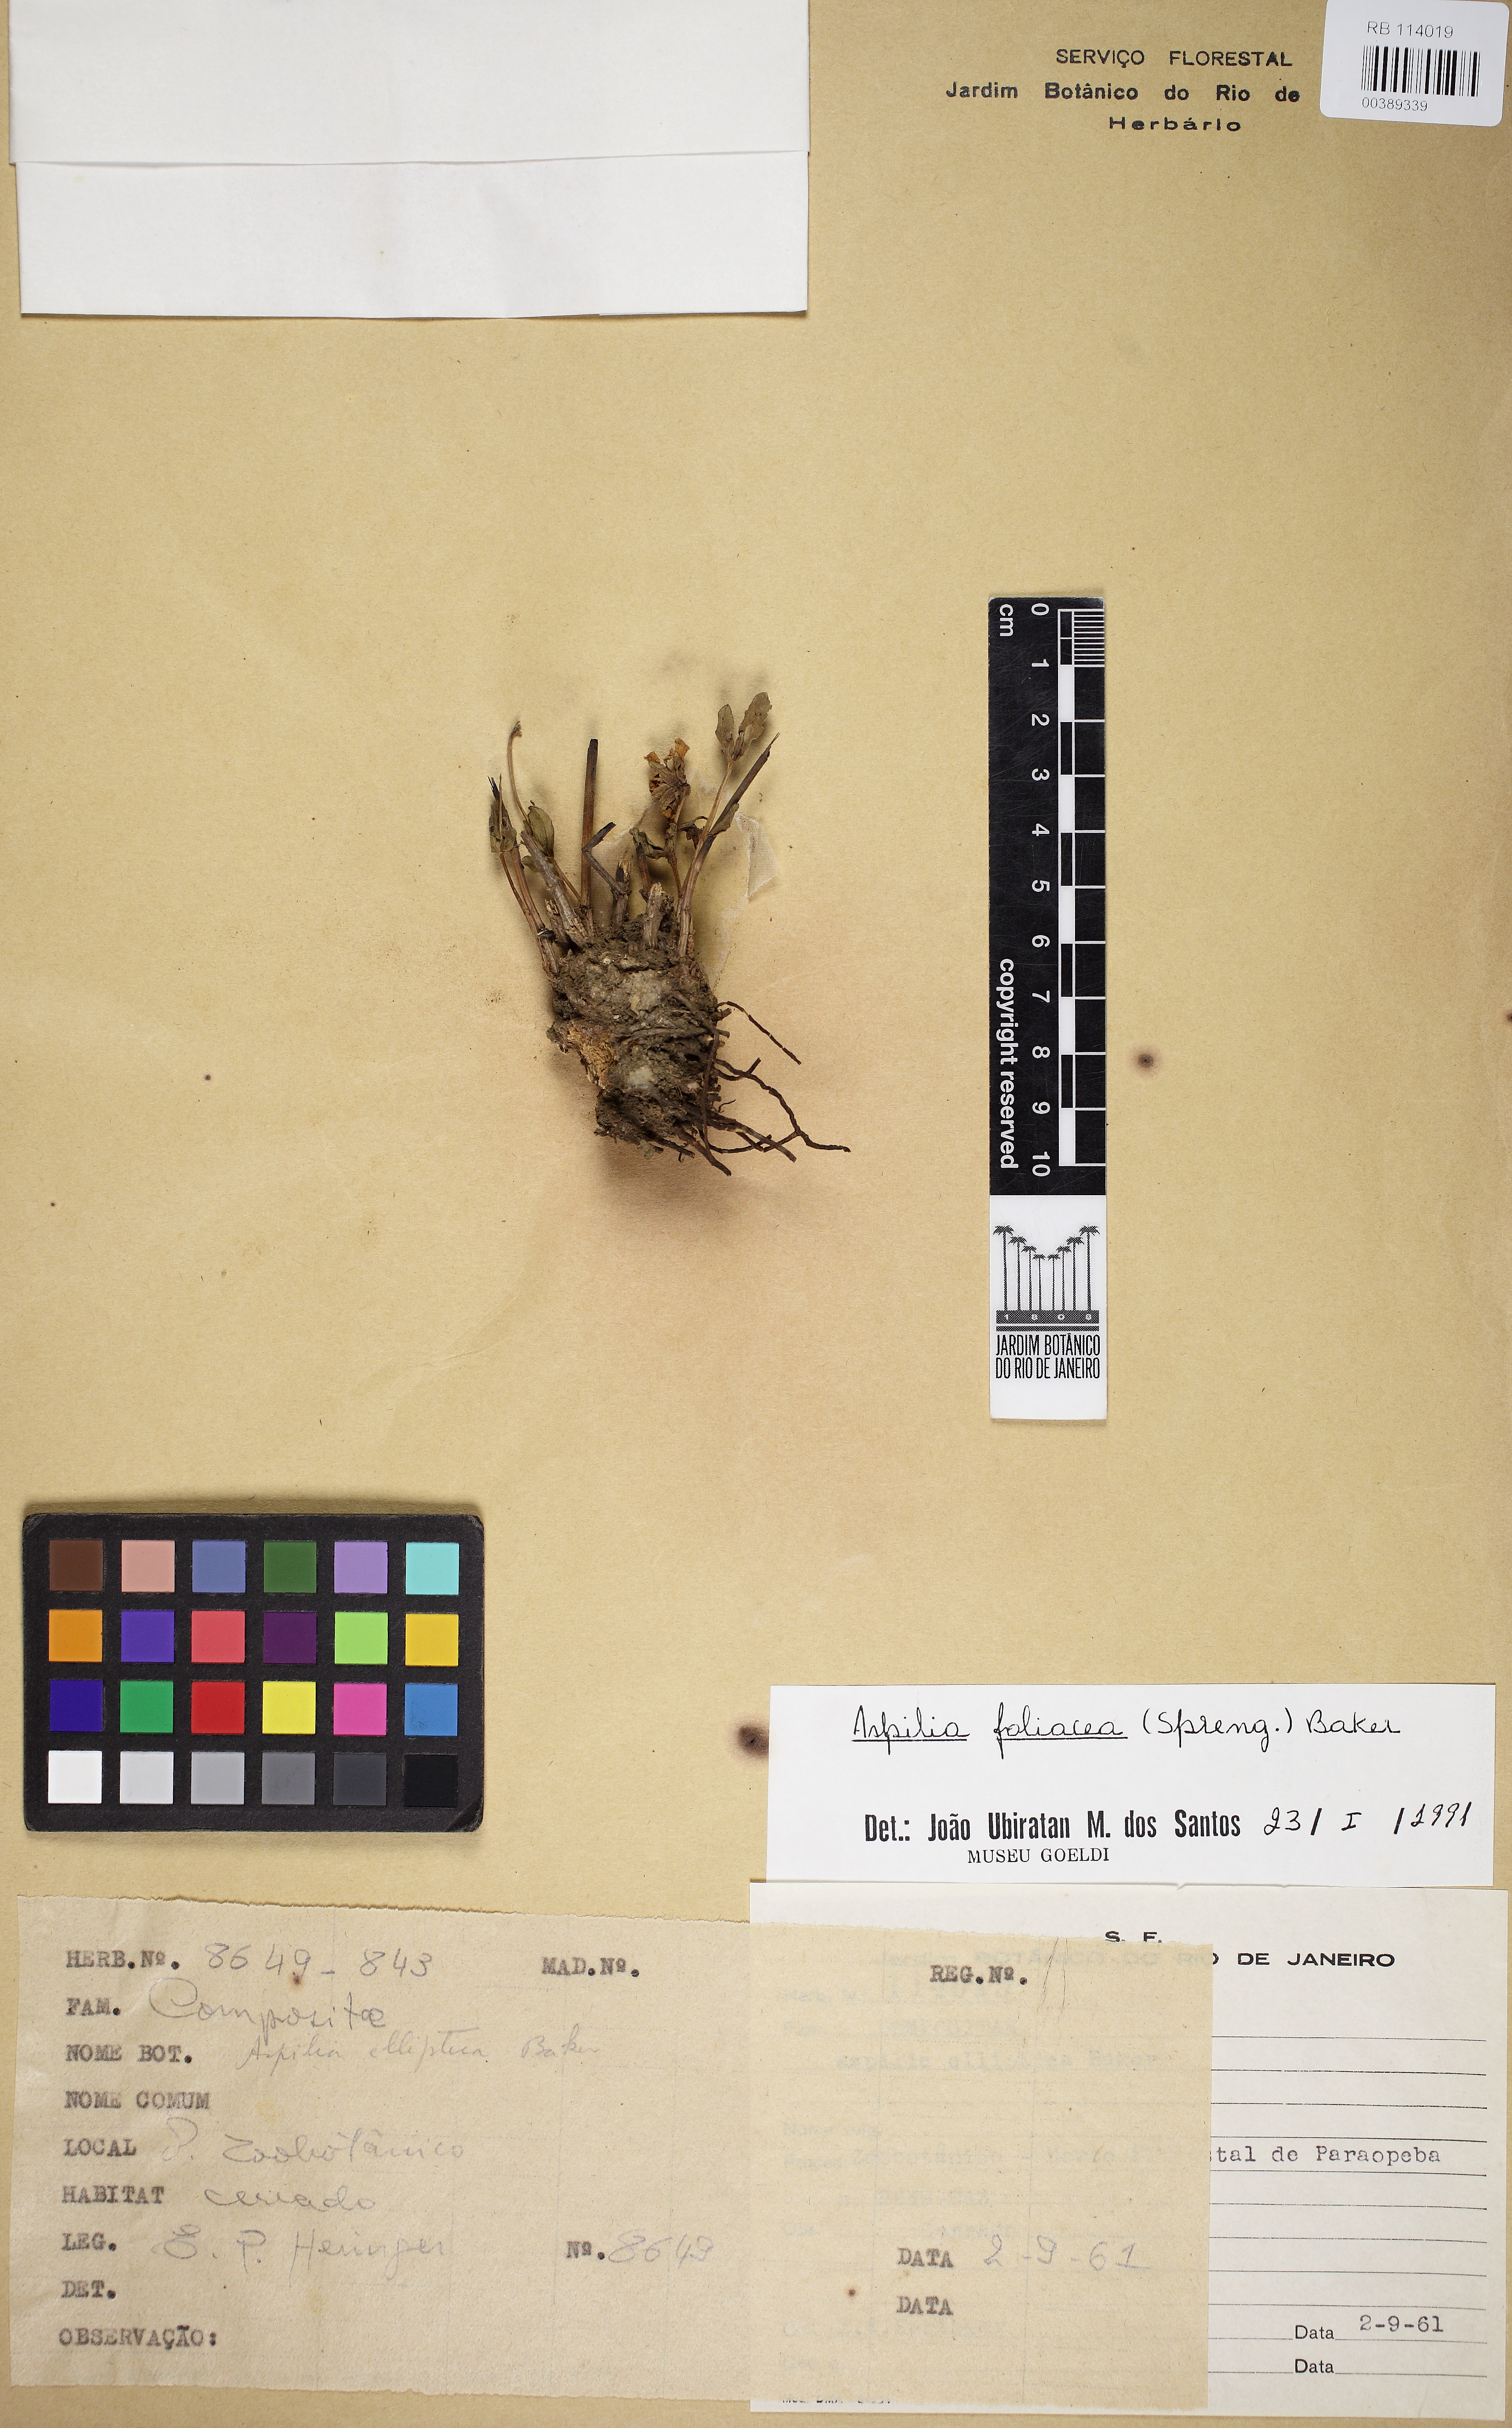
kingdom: Plantae
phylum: Tracheophyta
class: Magnoliopsida
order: Asterales
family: Asteraceae
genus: Wedelia
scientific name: Wedelia foliacea
